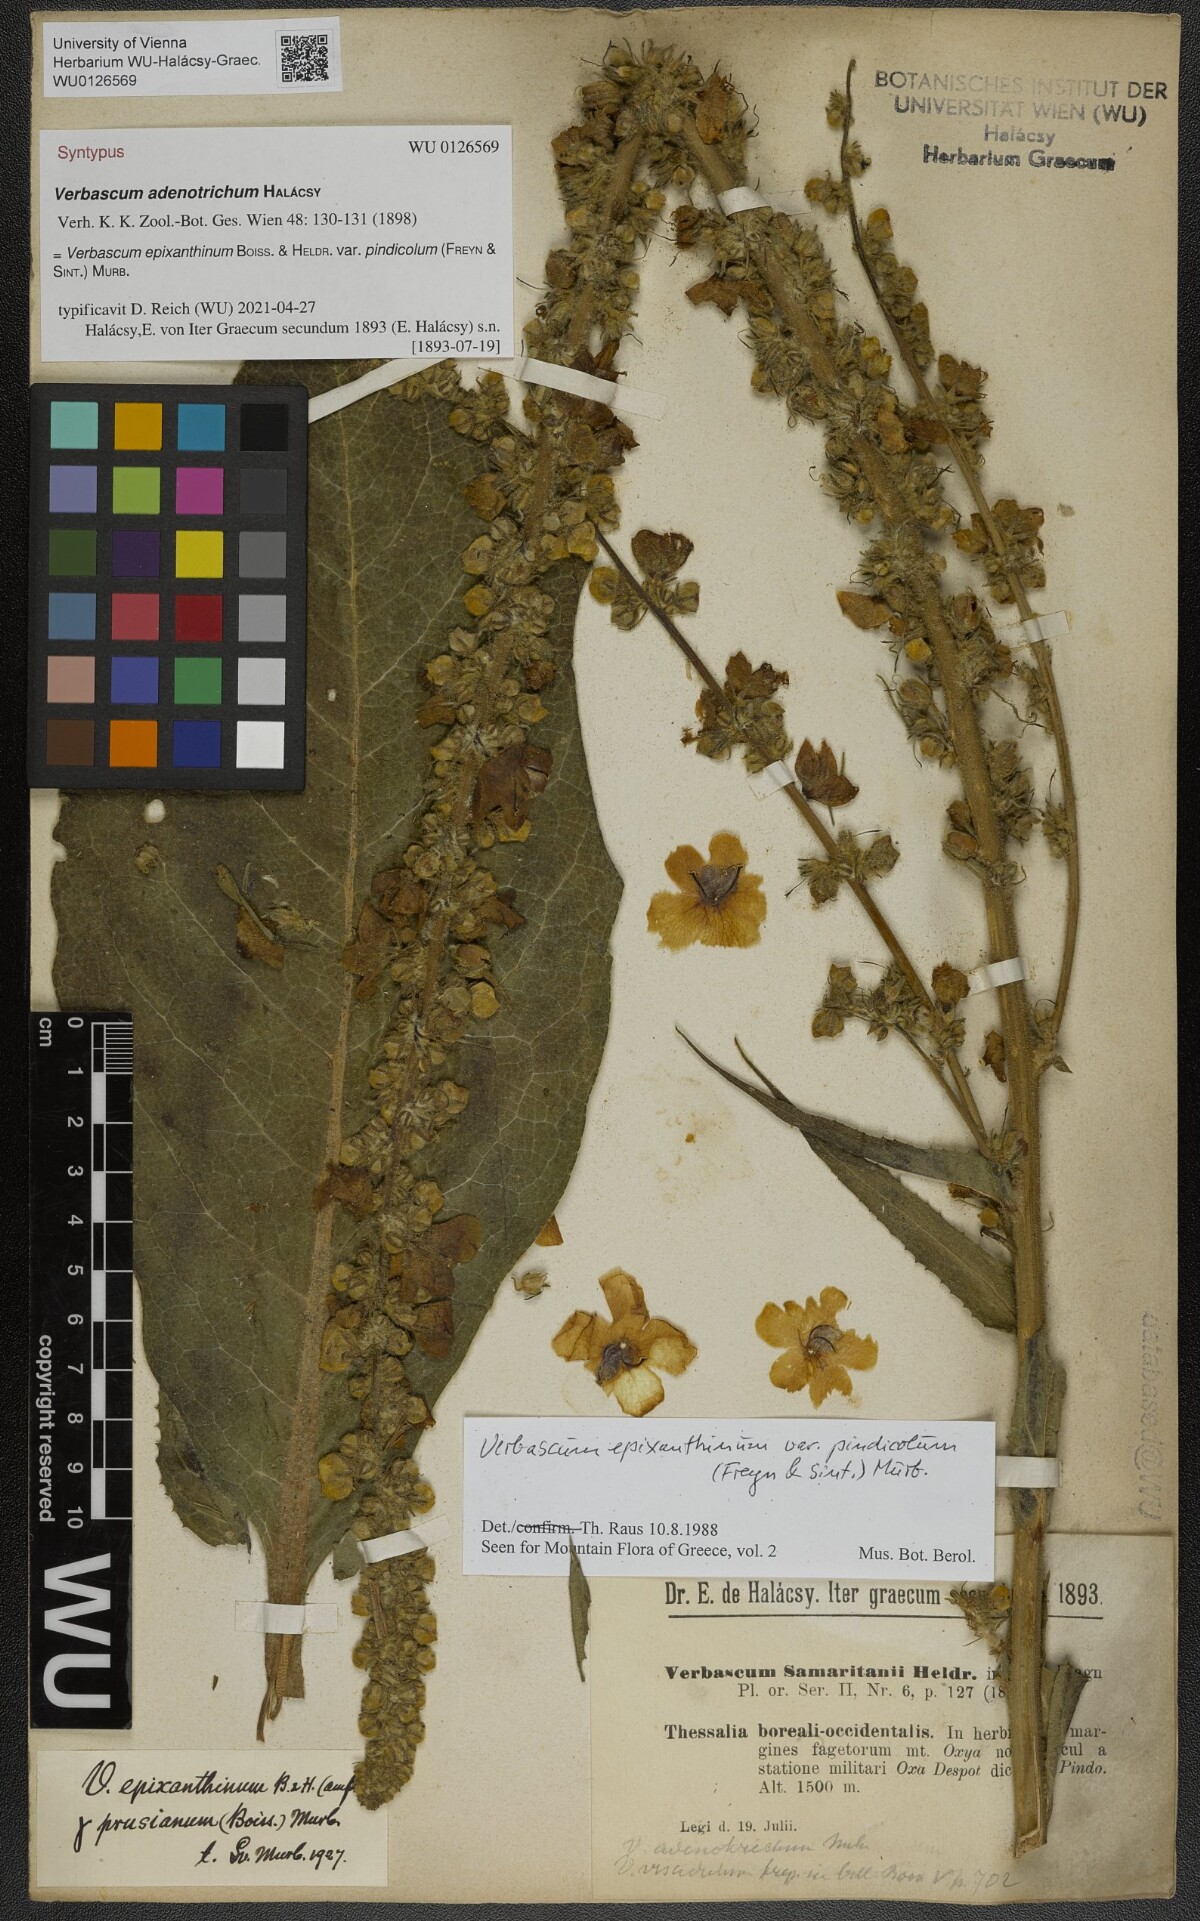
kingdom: Plantae
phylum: Tracheophyta
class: Magnoliopsida
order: Lamiales
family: Scrophulariaceae
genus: Verbascum
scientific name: Verbascum epixanthinum
